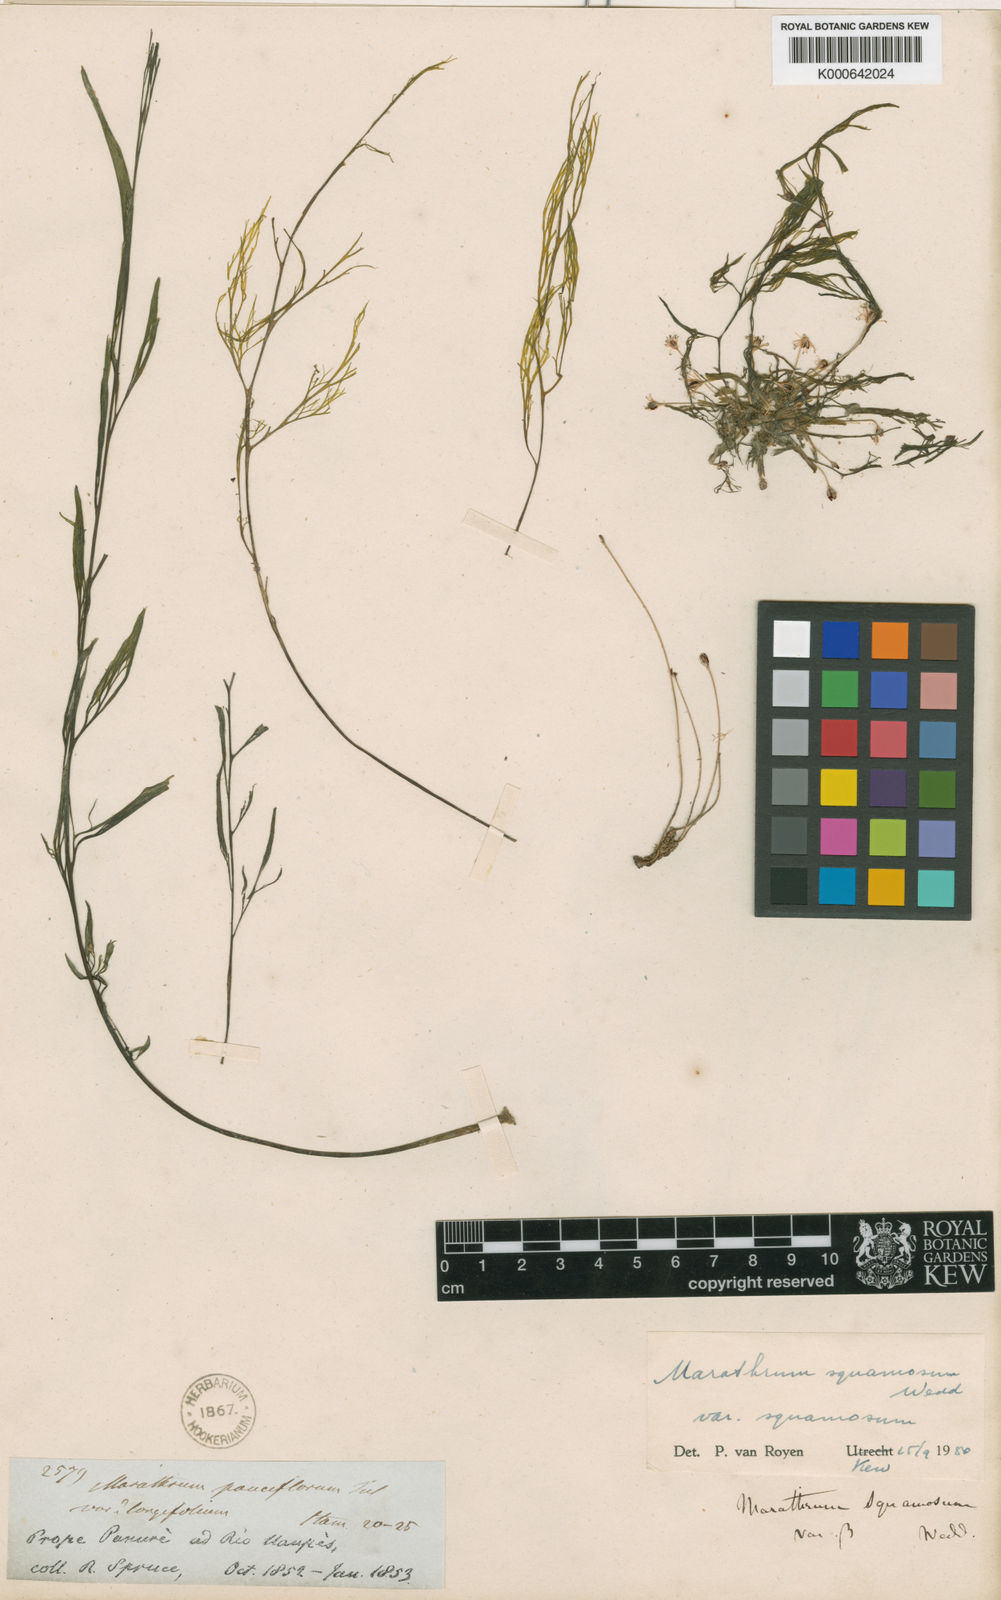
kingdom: Plantae
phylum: Tracheophyta
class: Magnoliopsida
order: Malpighiales
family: Podostemaceae
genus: Rhyncholacis
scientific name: Rhyncholacis squamosa
